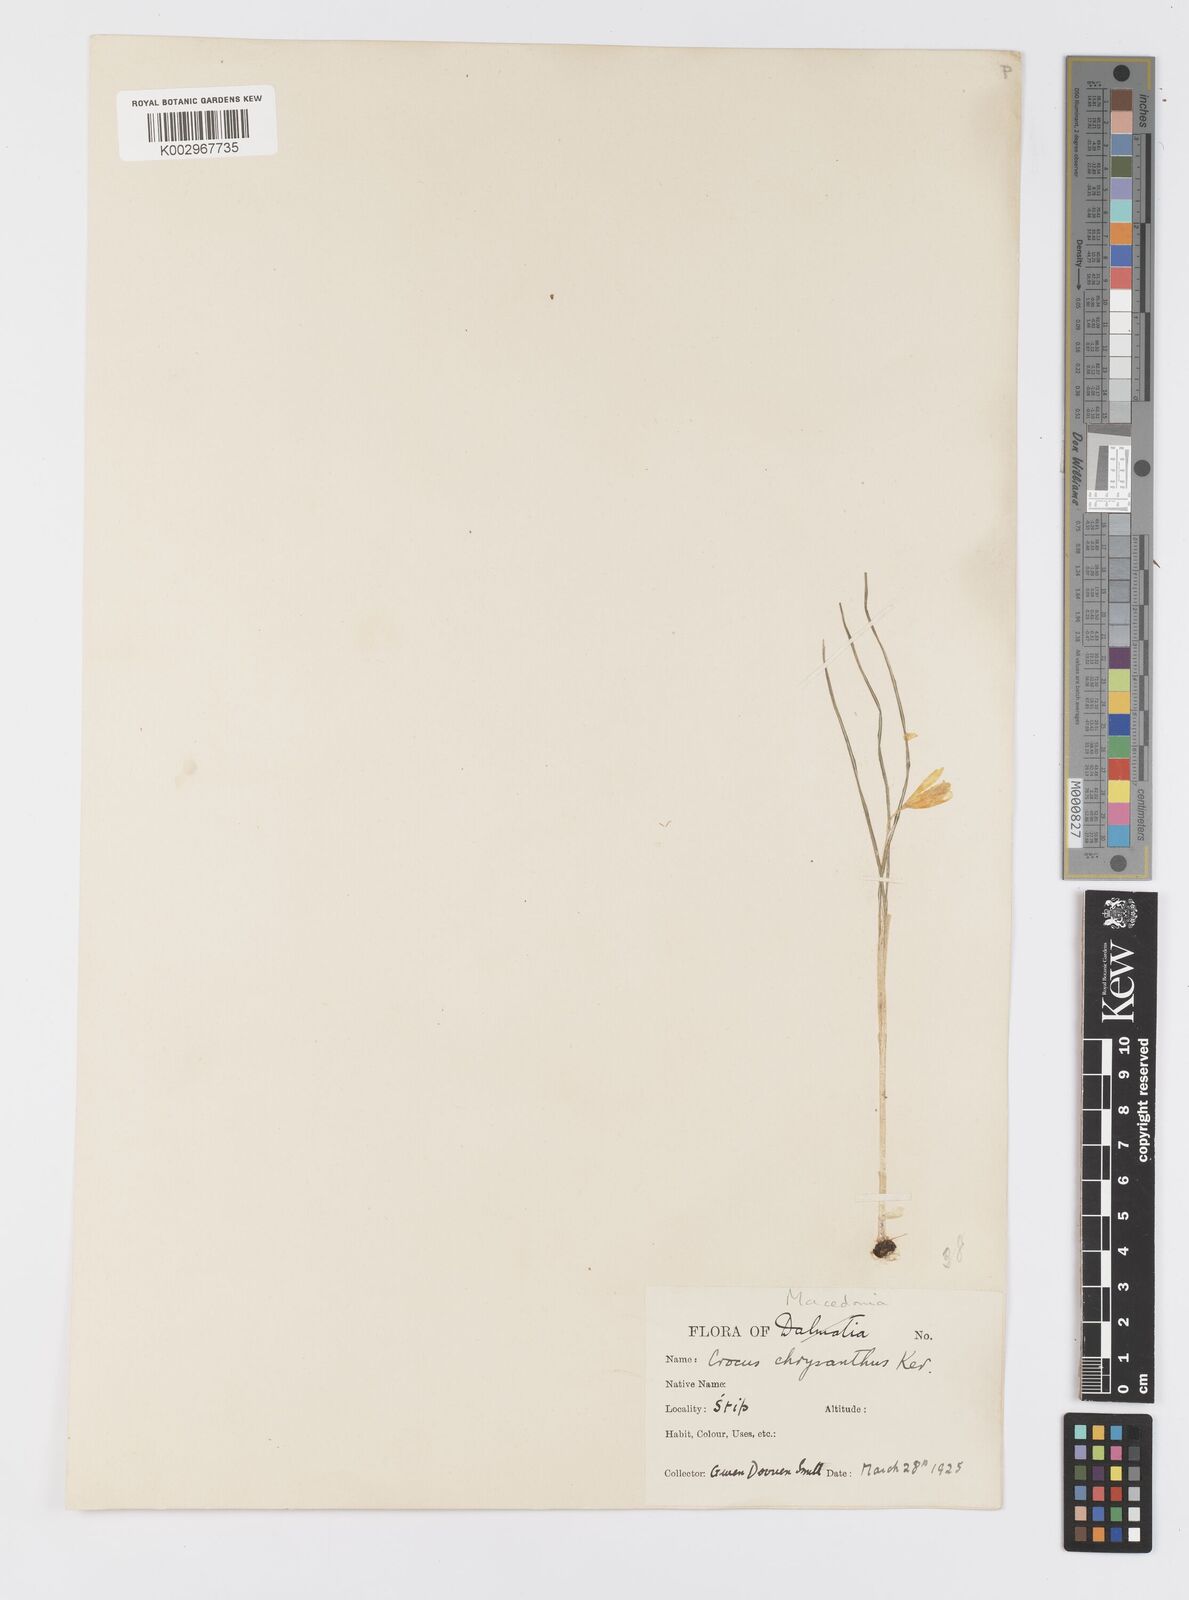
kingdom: Plantae
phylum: Tracheophyta
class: Liliopsida
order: Asparagales
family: Iridaceae
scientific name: Iridaceae
